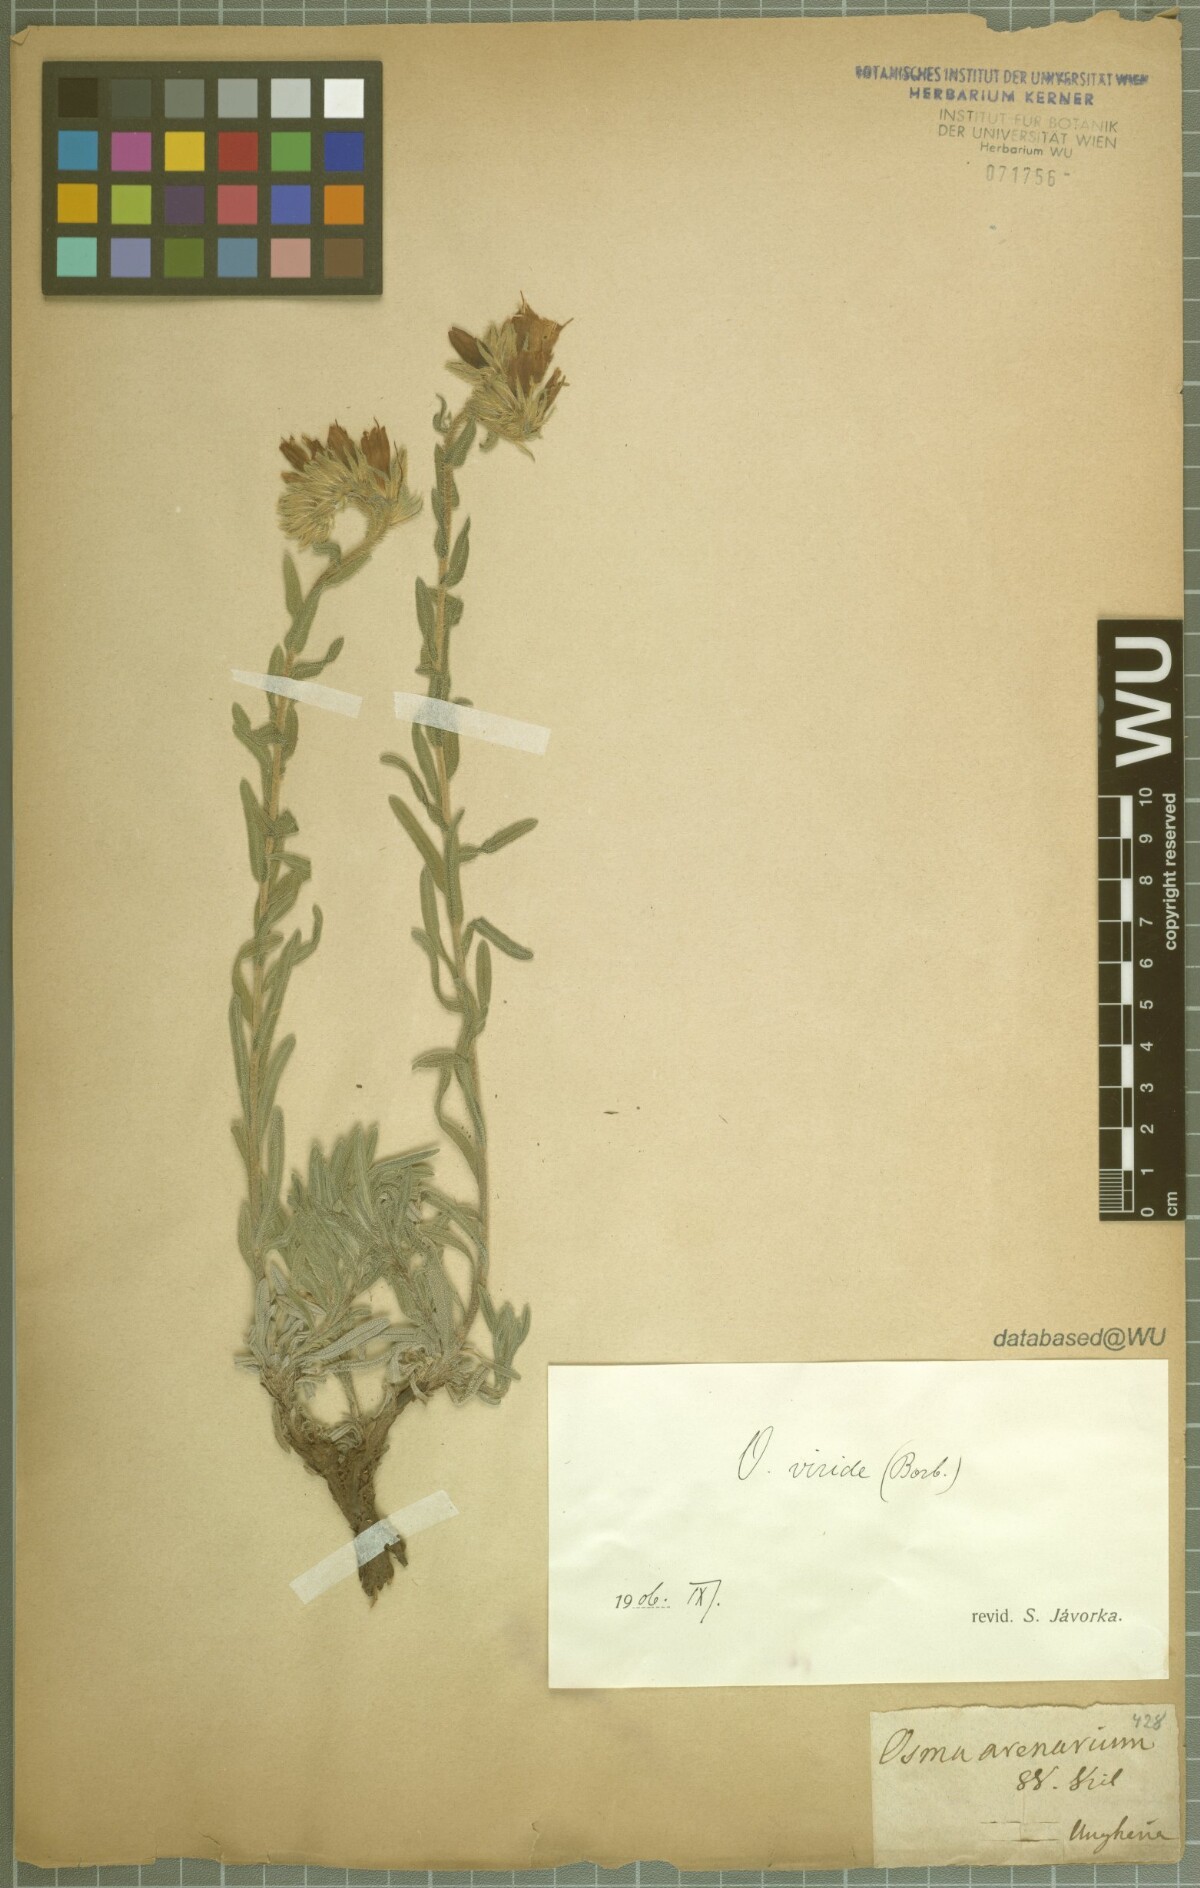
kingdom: Plantae
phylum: Tracheophyta
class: Magnoliopsida
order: Boraginales
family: Boraginaceae
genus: Onosma
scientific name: Onosma viridis
